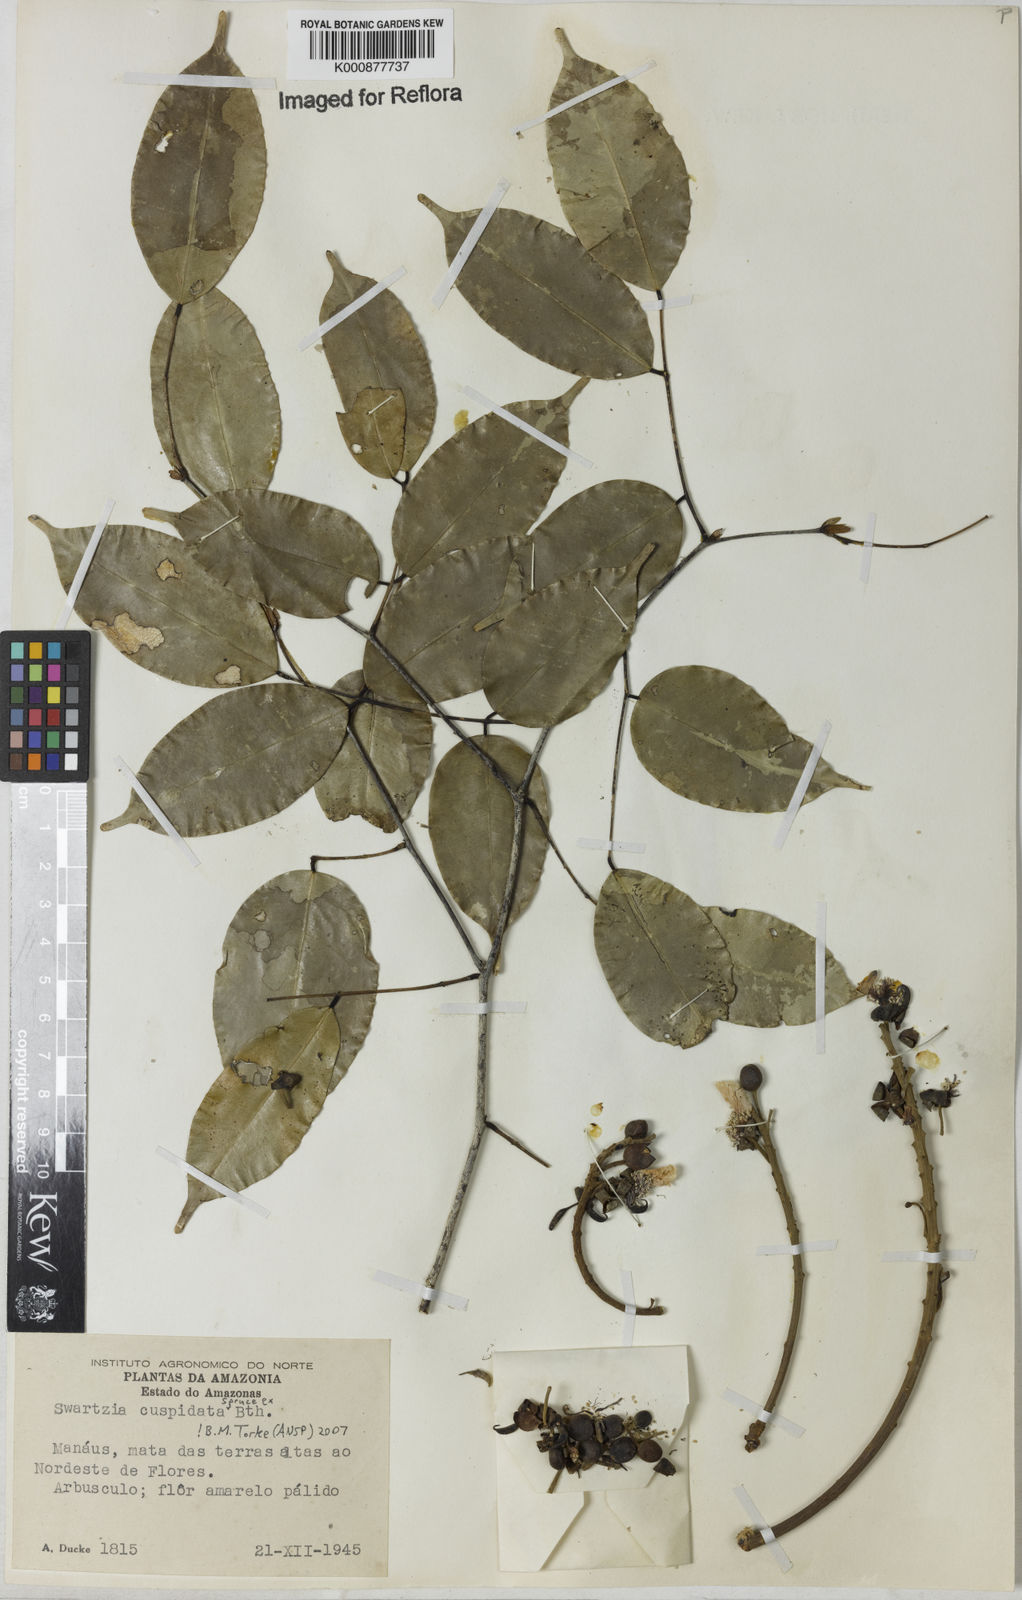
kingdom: Plantae
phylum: Tracheophyta
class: Magnoliopsida
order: Fabales
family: Fabaceae
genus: Swartzia
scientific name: Swartzia cuspidata
